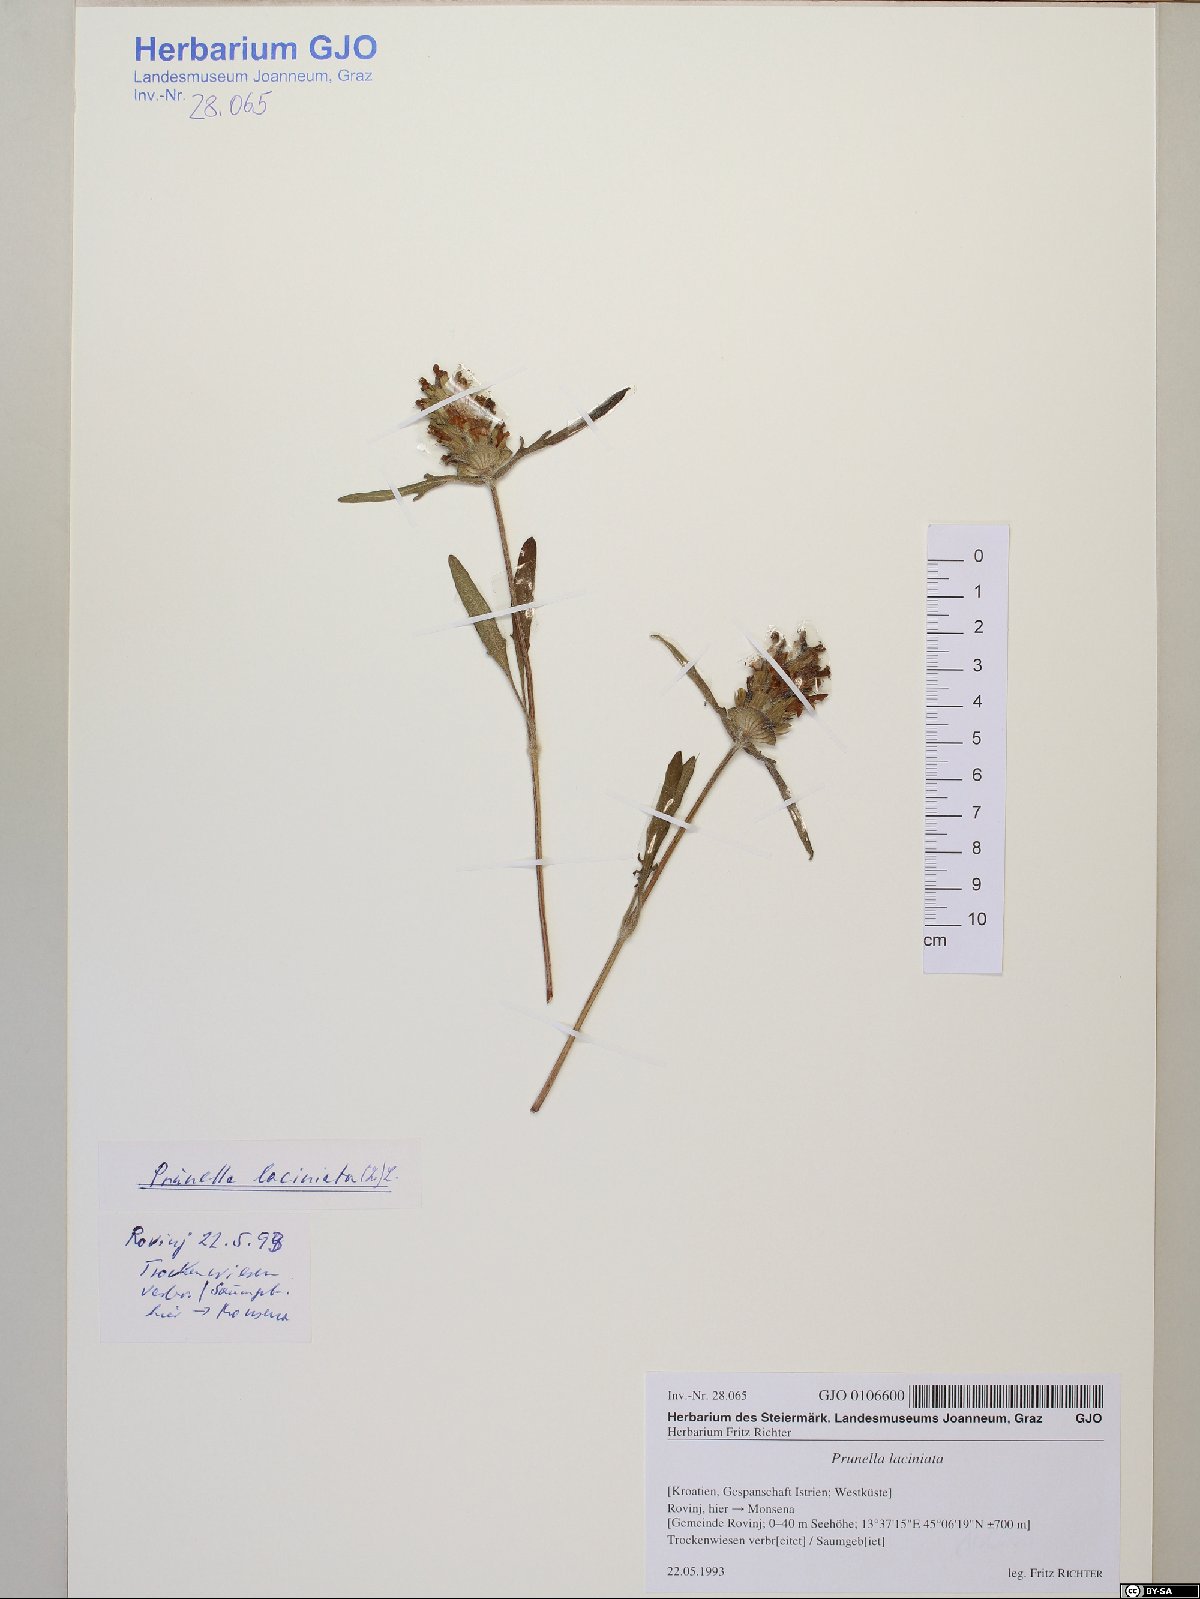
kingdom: Plantae
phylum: Tracheophyta
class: Magnoliopsida
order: Lamiales
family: Lamiaceae
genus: Prunella
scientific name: Prunella laciniata
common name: Cut-leaved selfheal
